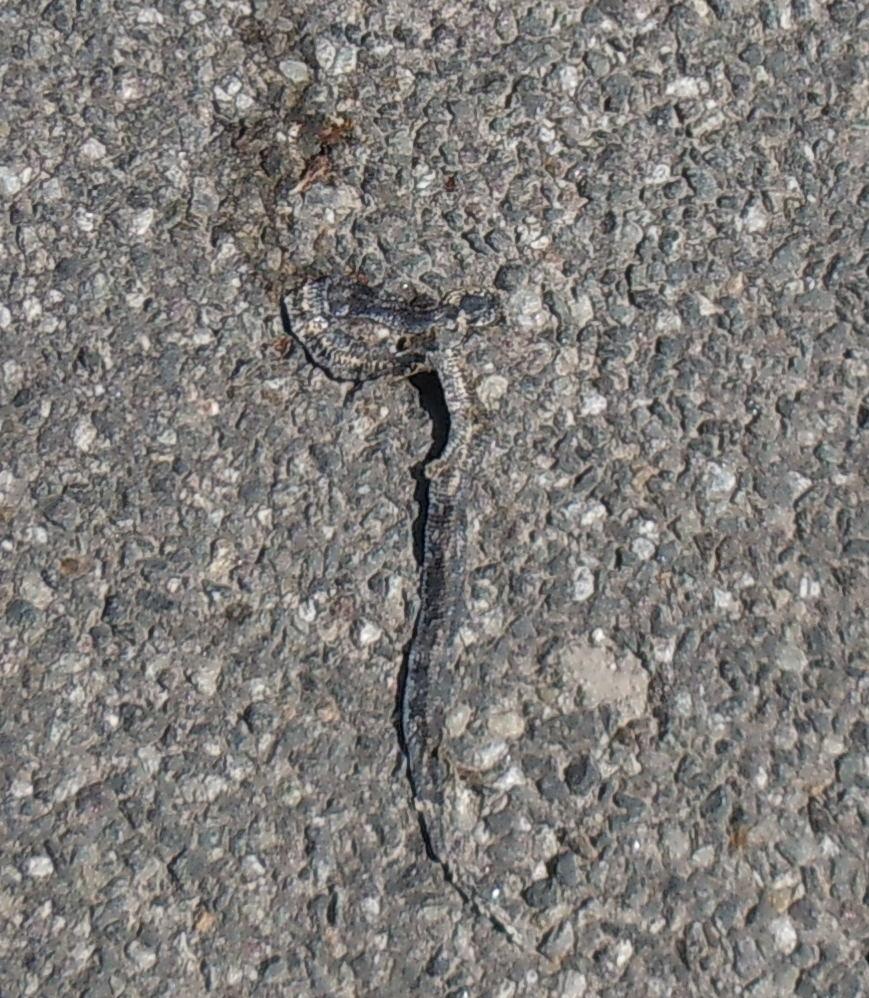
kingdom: Animalia
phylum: Chordata
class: Squamata
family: Colubridae
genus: Natrix
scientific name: Natrix natrix
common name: Grass snake
